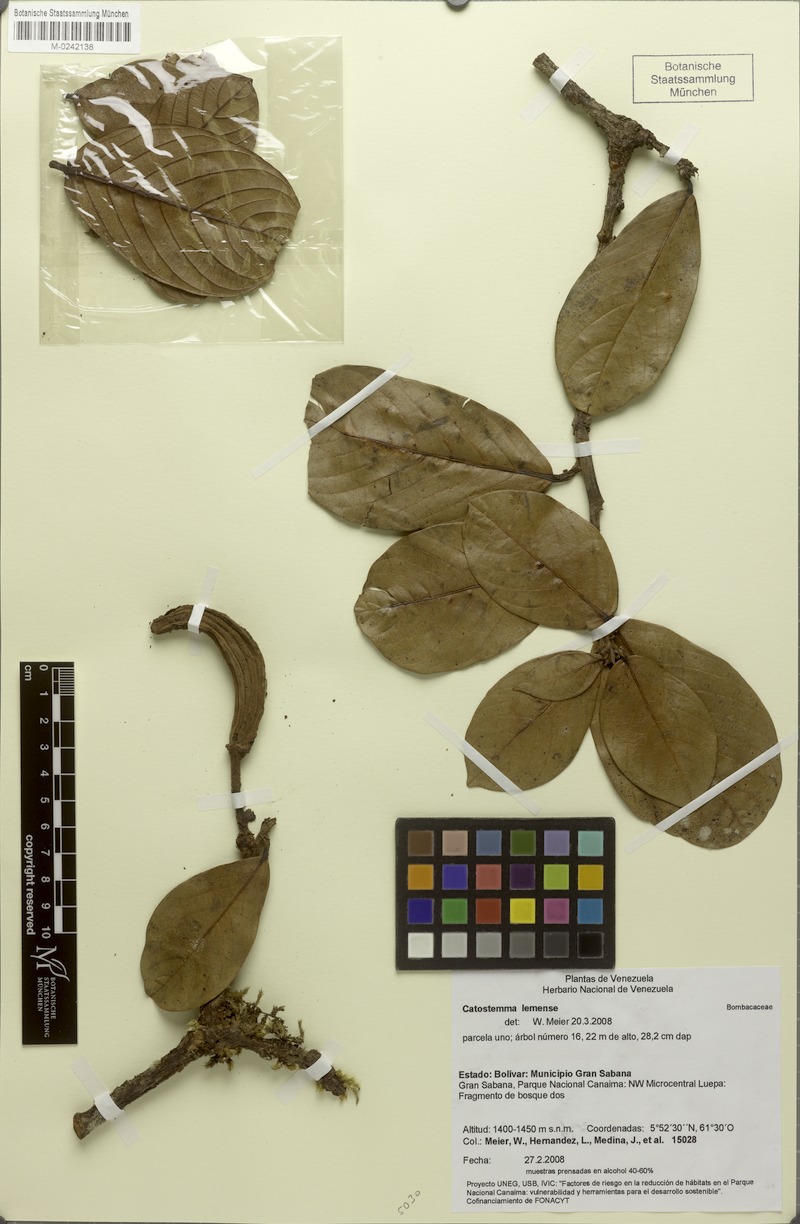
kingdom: Plantae
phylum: Tracheophyta
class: Magnoliopsida
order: Malvales
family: Malvaceae
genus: Catostemma
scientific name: Catostemma lemense
